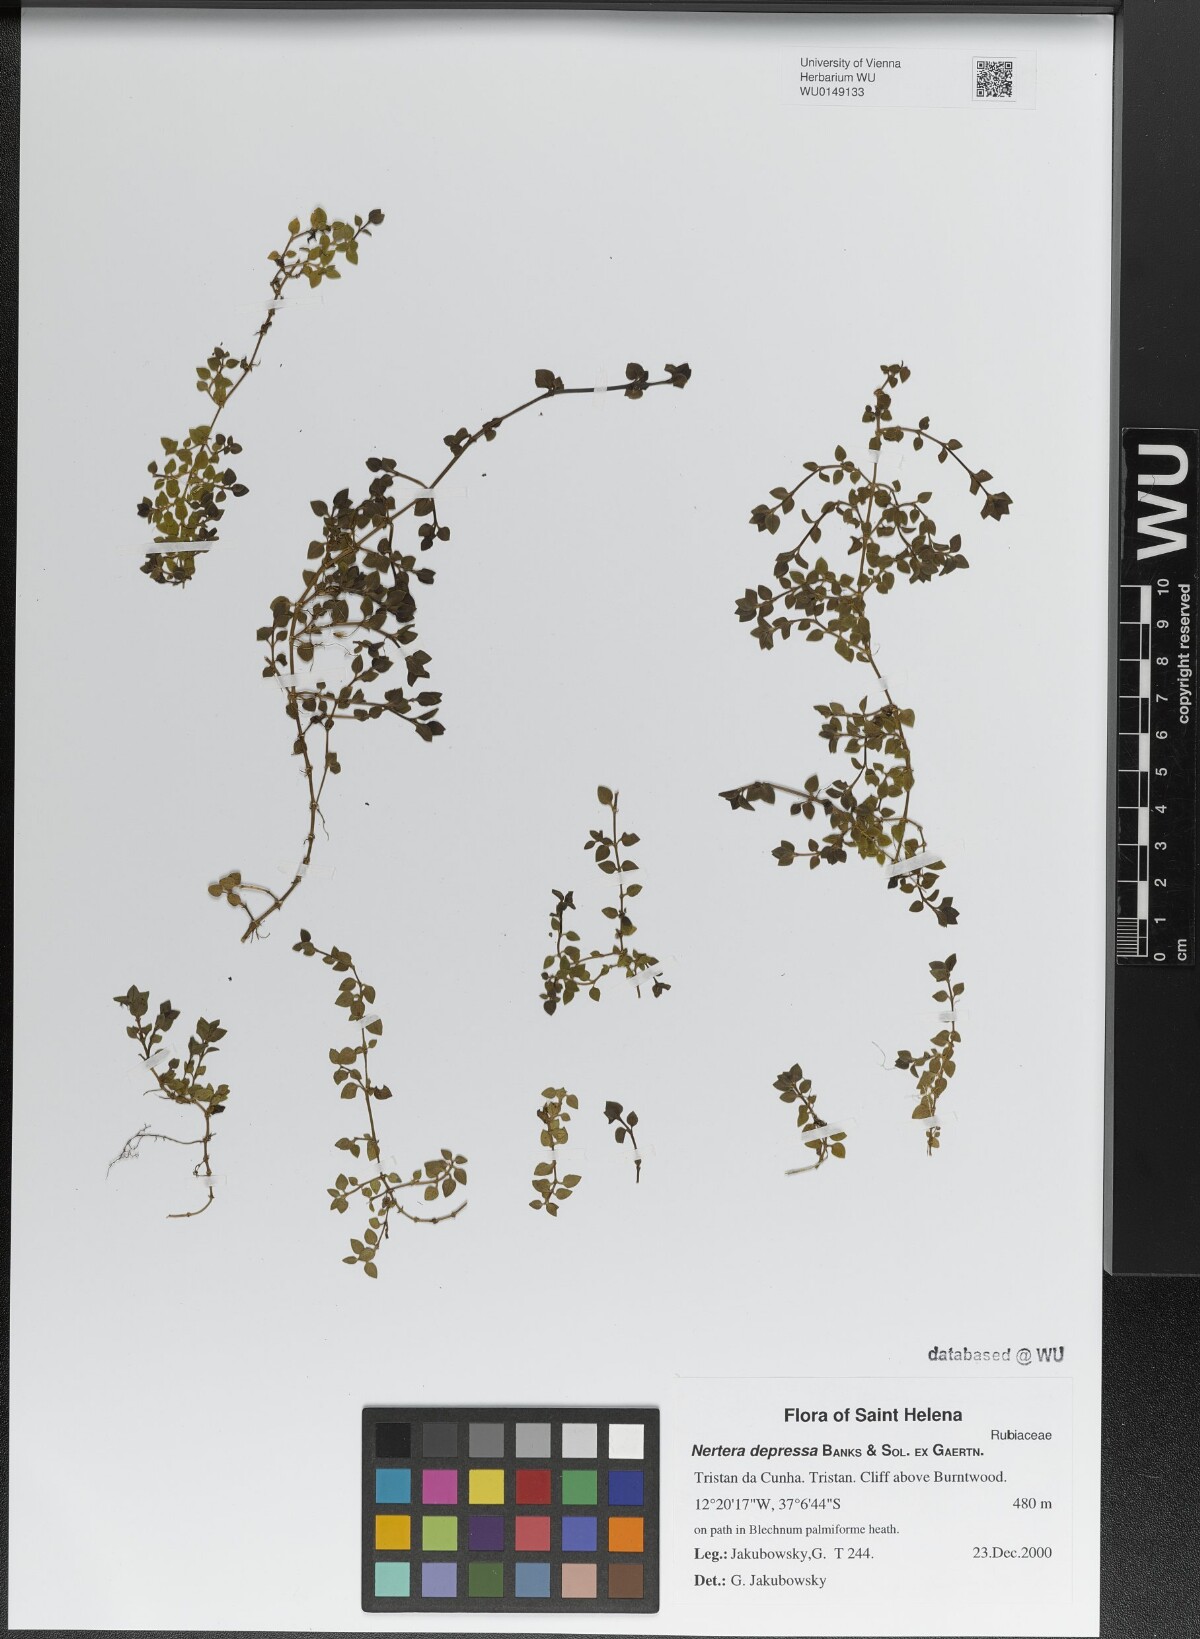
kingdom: Plantae
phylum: Tracheophyta
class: Magnoliopsida
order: Gentianales
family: Rubiaceae
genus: Nertera
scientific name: Nertera granadensis
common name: Beadplant
